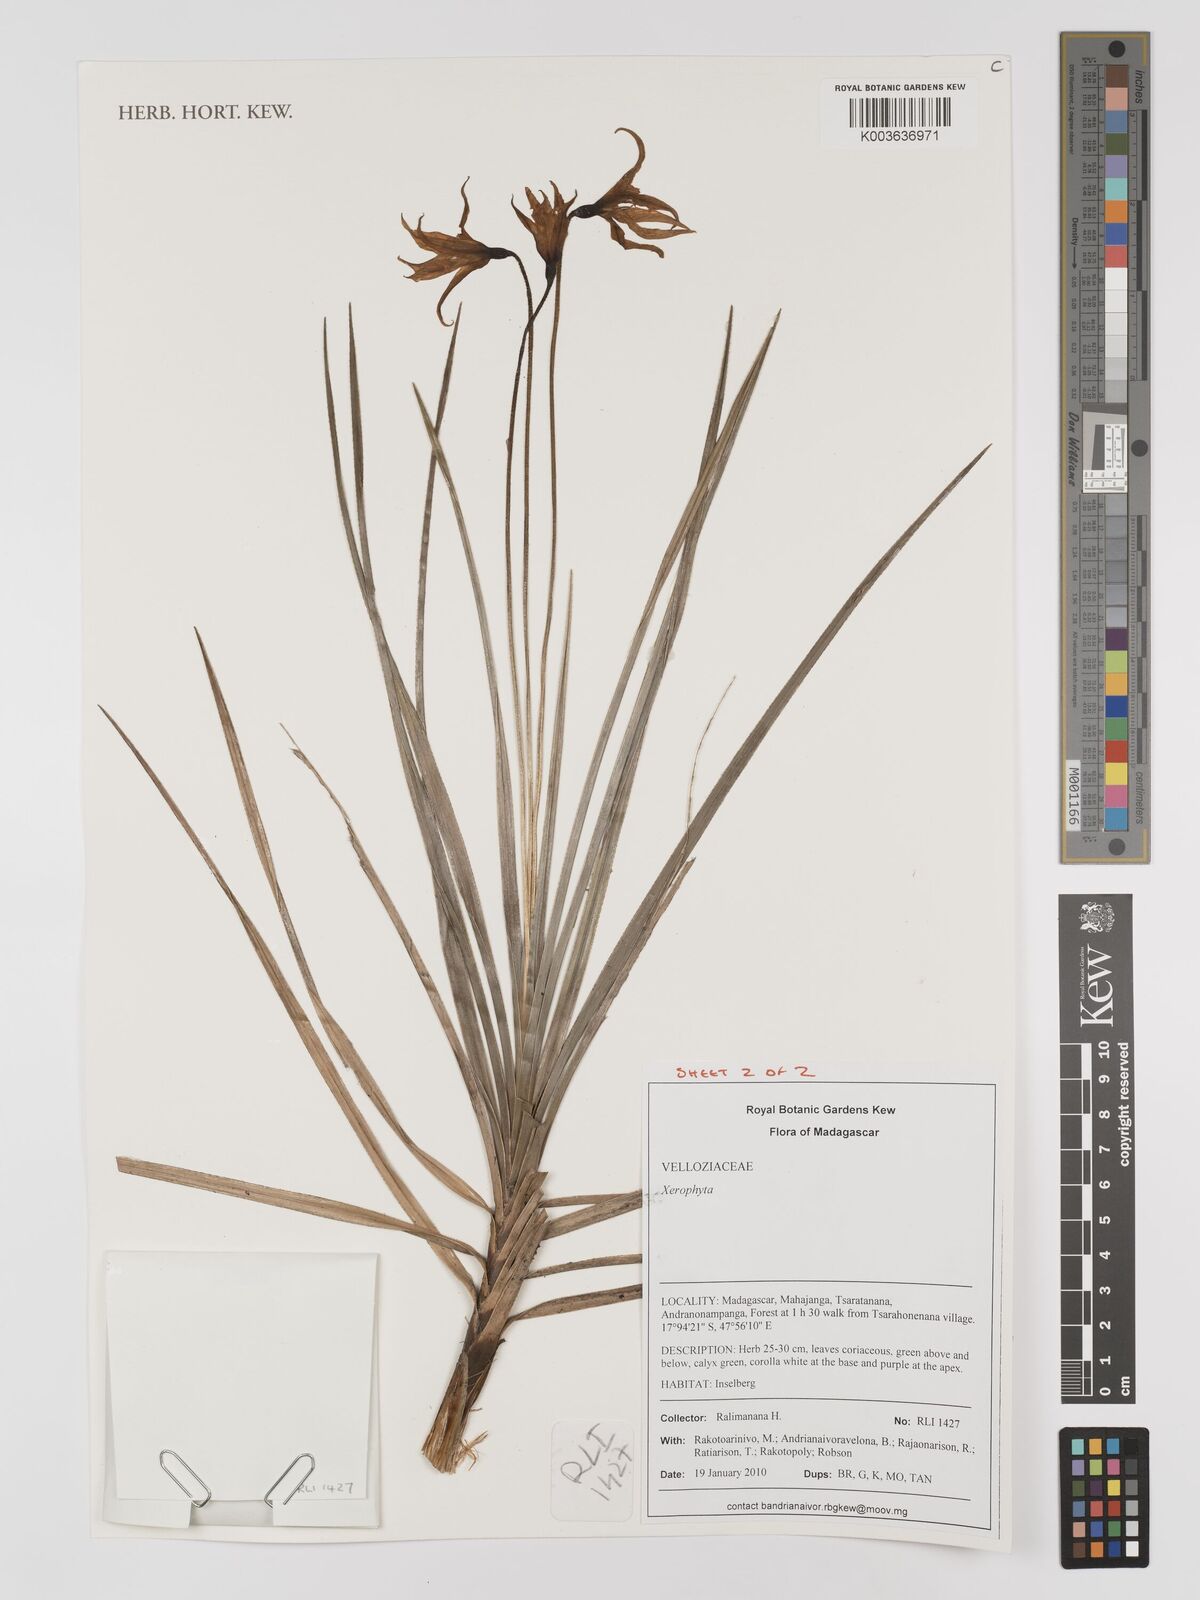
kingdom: Plantae
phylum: Tracheophyta
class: Liliopsida
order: Pandanales
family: Velloziaceae
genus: Xerophyta
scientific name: Xerophyta
